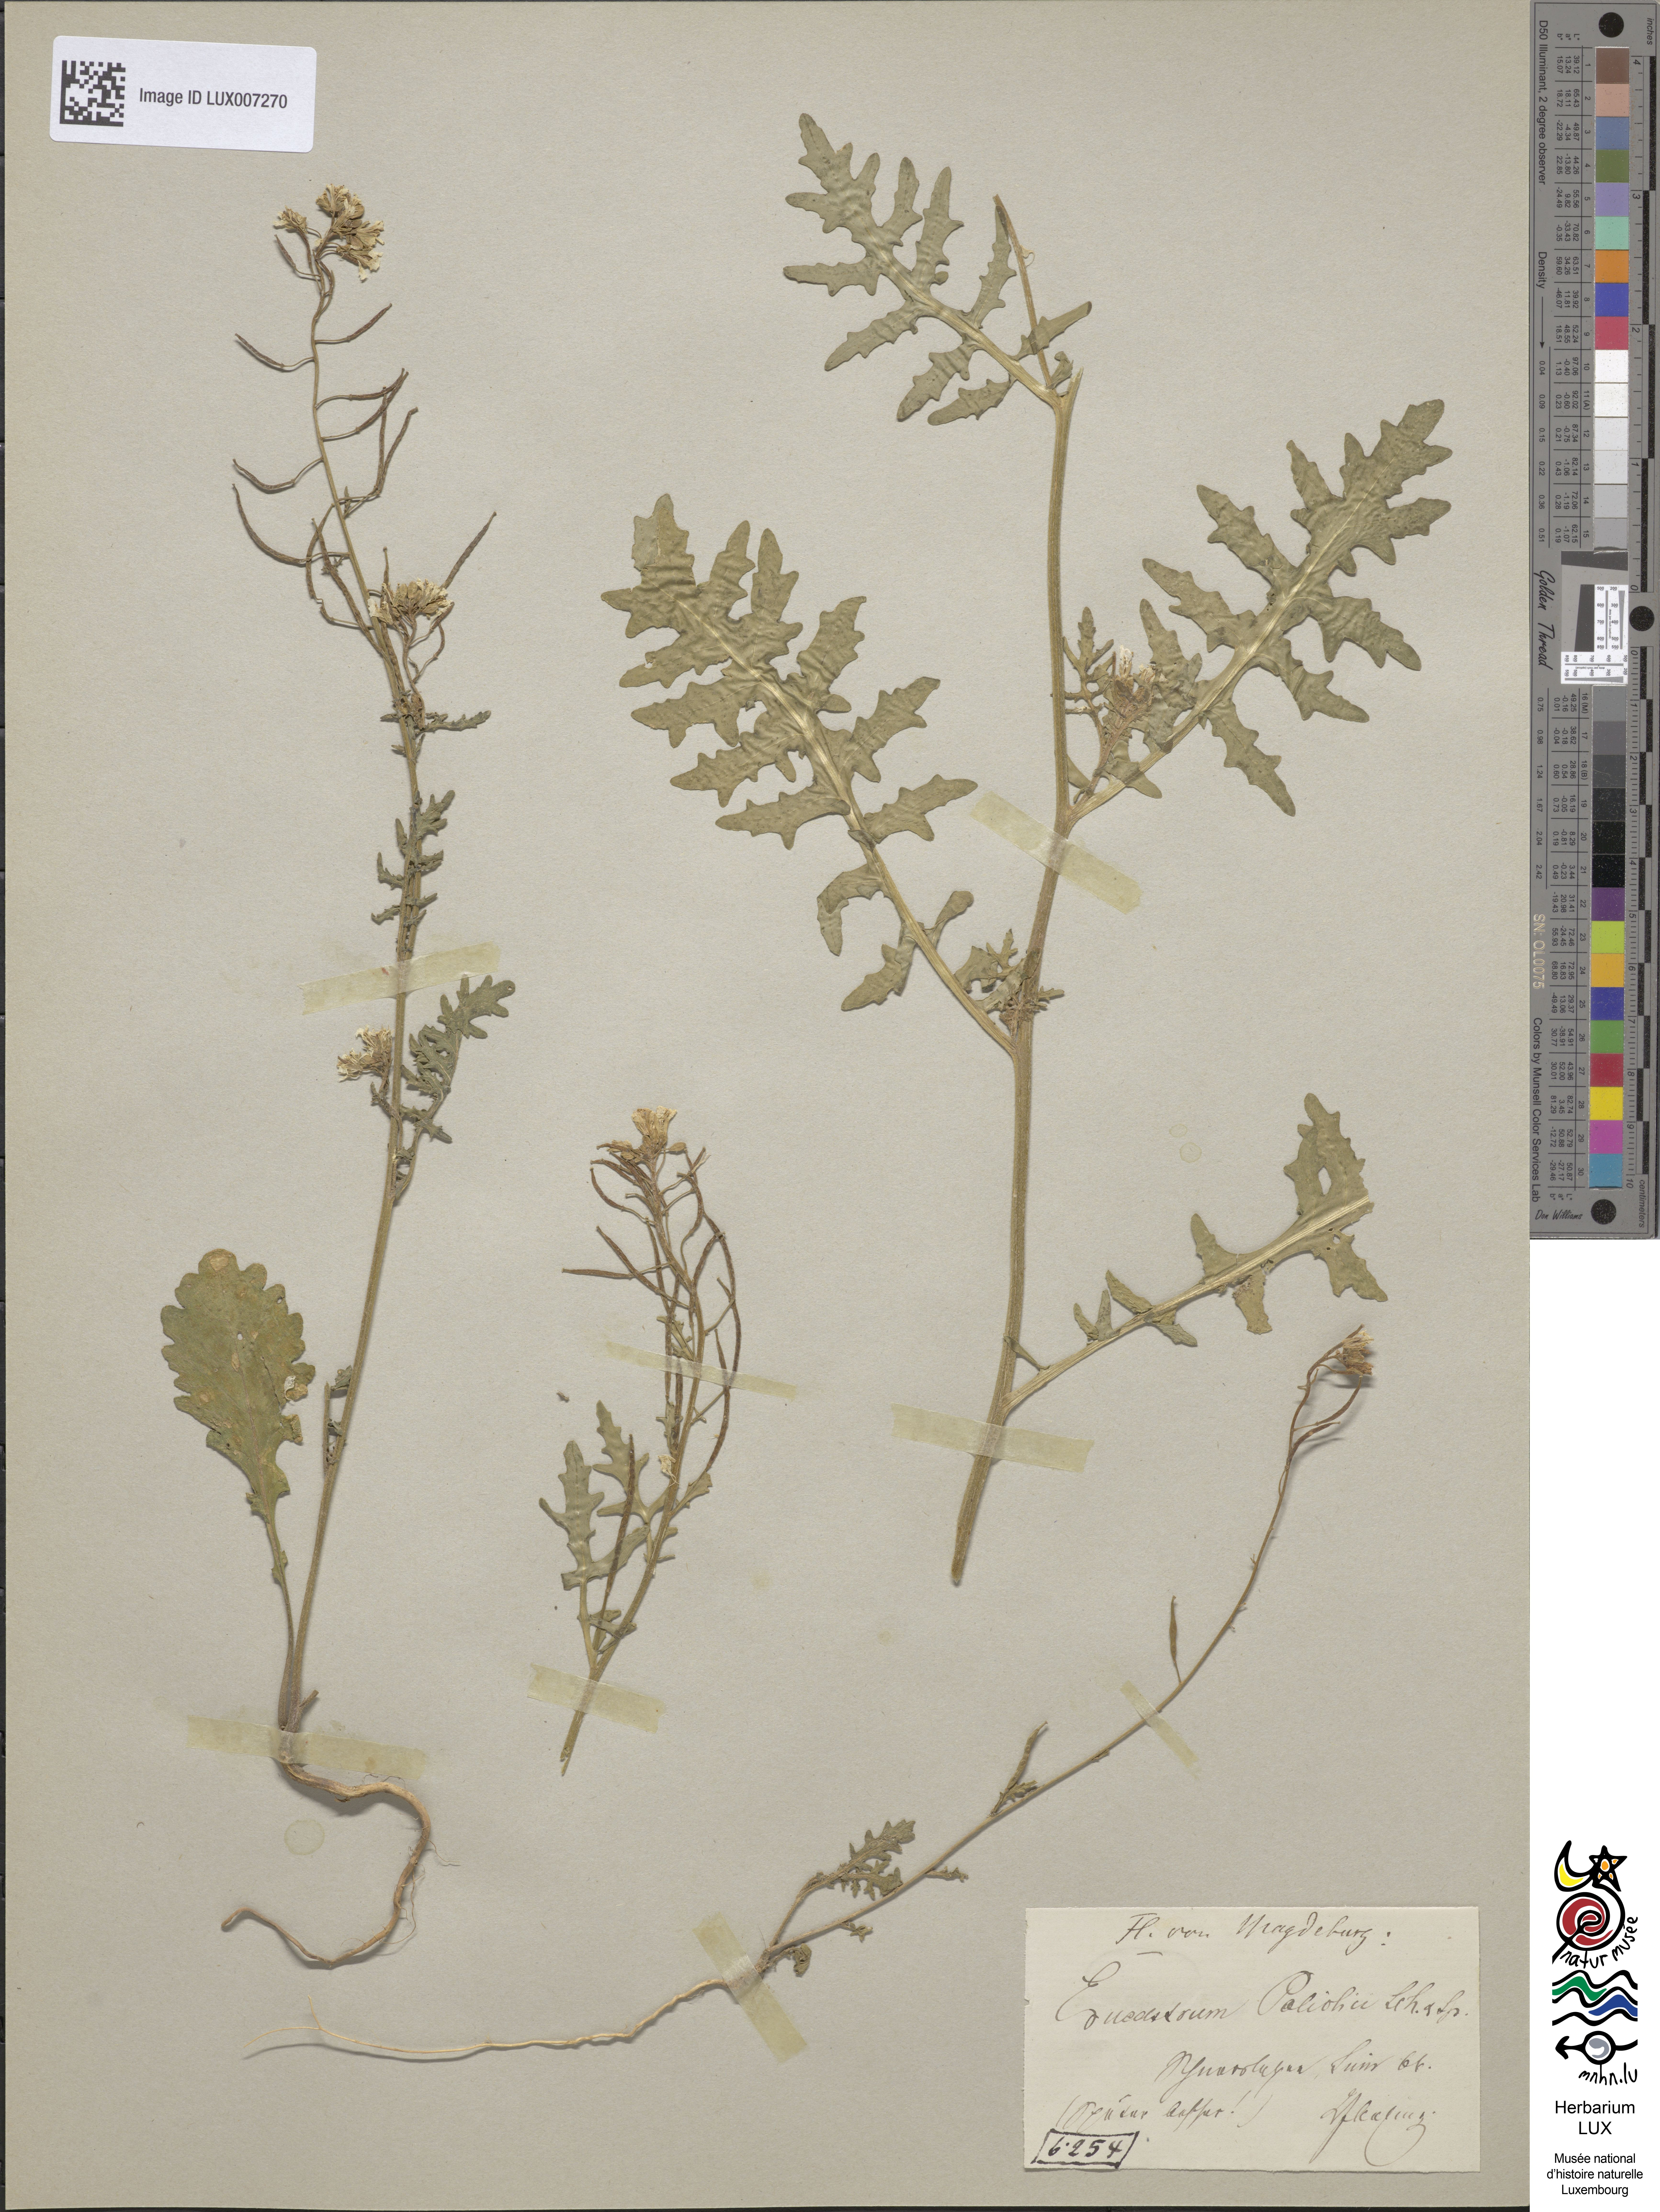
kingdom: Plantae
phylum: Tracheophyta
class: Magnoliopsida
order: Brassicales
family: Brassicaceae
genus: Erucastrum
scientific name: Erucastrum gallicum
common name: Hairy rocket
